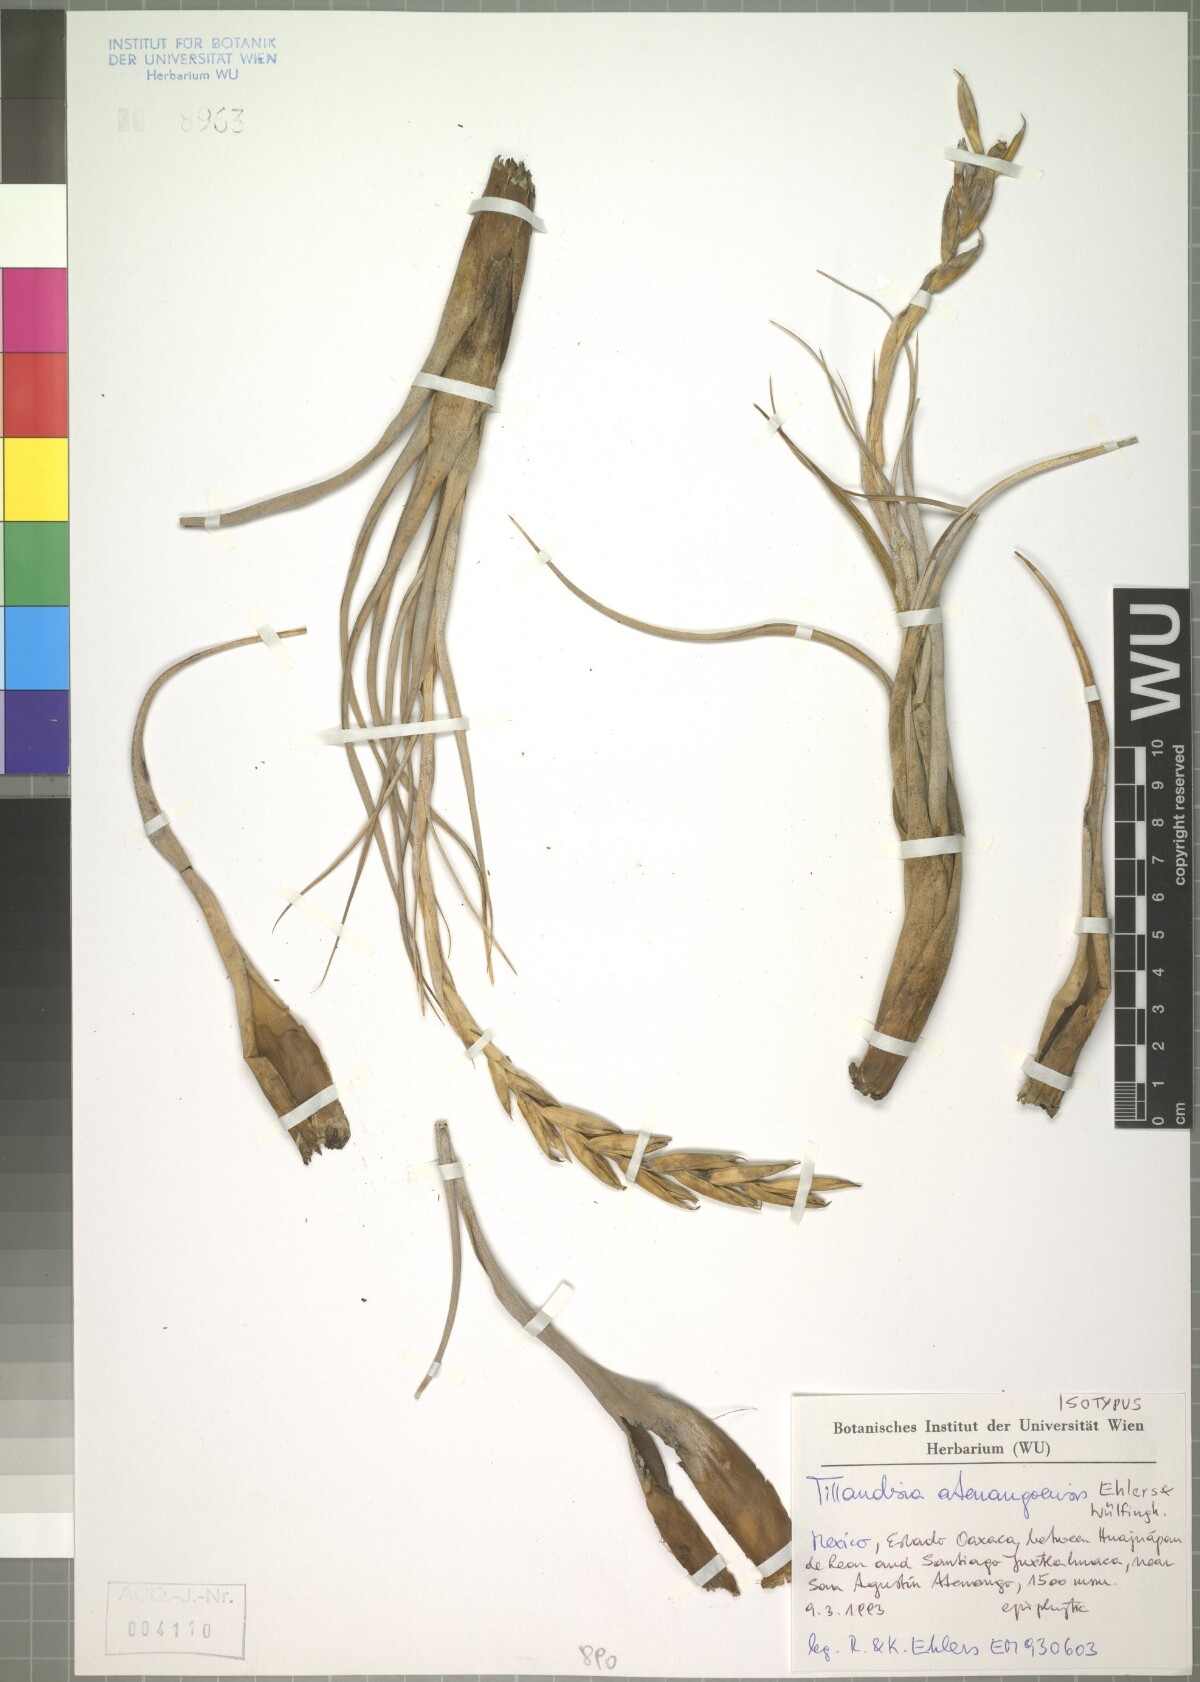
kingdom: Plantae
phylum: Tracheophyta
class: Liliopsida
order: Poales
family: Bromeliaceae
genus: Tillandsia
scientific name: Tillandsia atenangoensis
